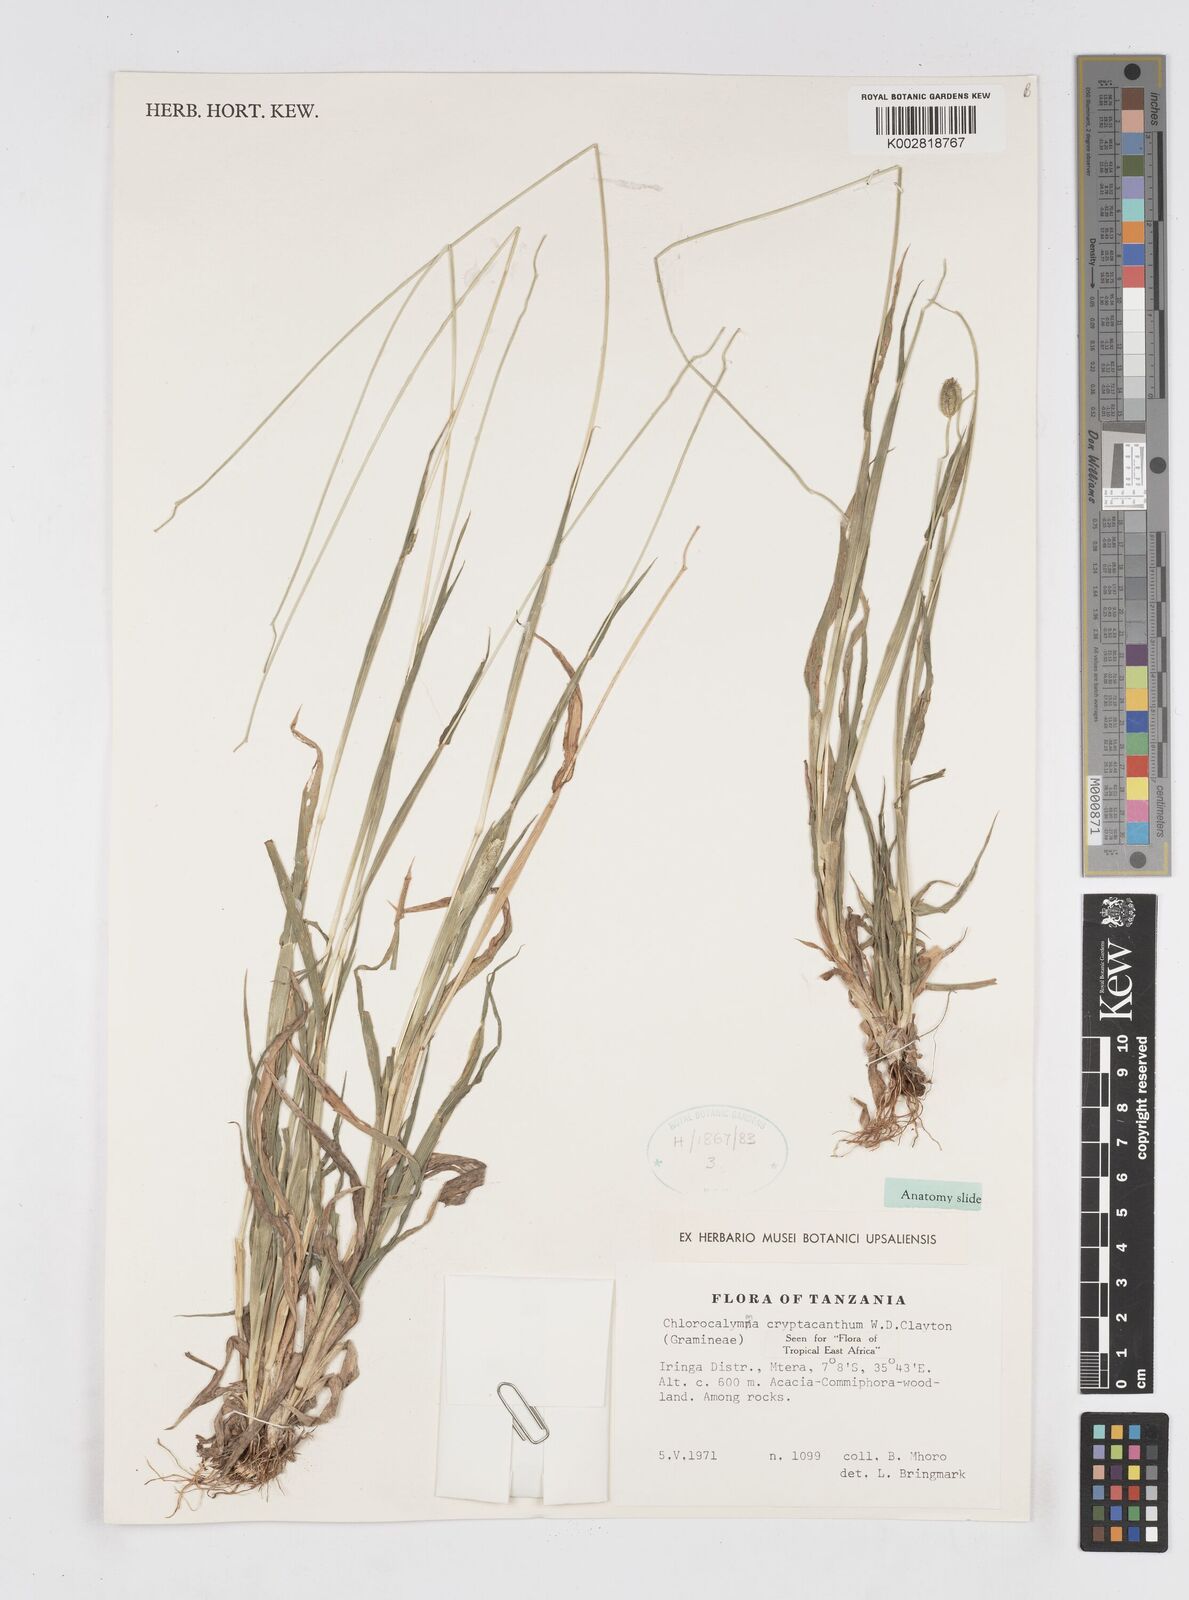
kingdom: Plantae
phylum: Tracheophyta
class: Liliopsida
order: Poales
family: Poaceae
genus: Chlorocalymma
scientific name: Chlorocalymma cryptacanthum
